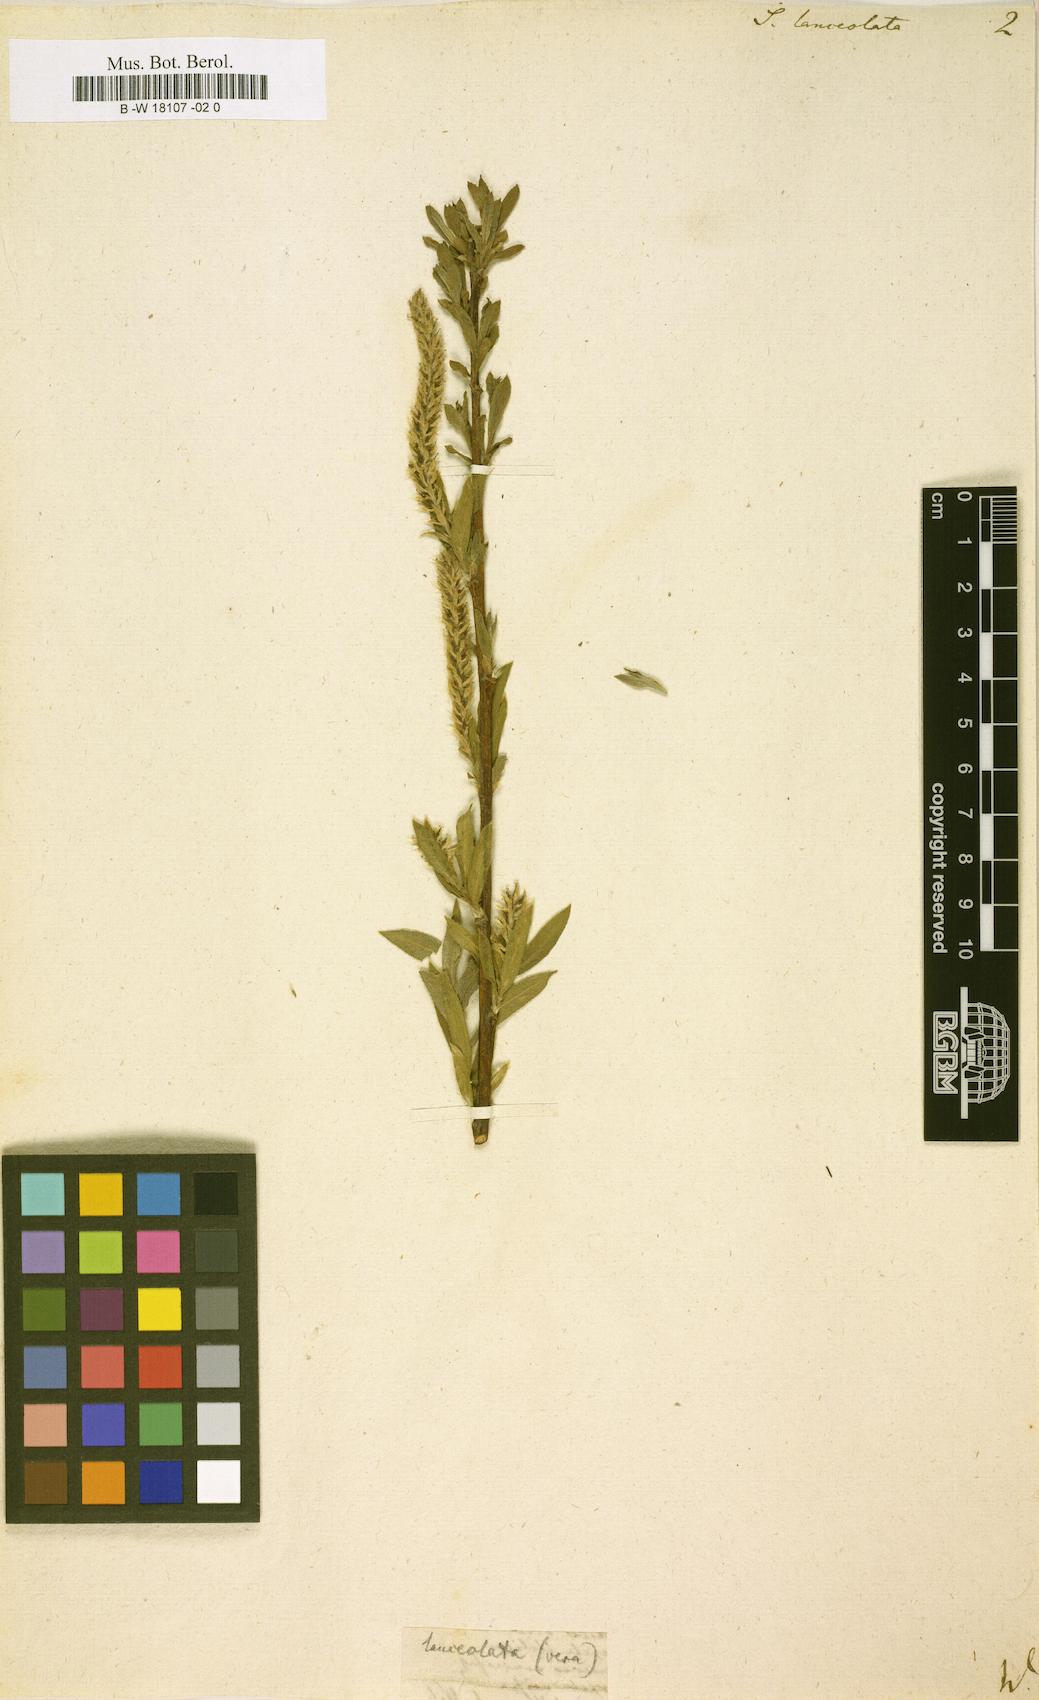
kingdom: Plantae
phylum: Tracheophyta
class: Magnoliopsida
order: Malpighiales
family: Salicaceae
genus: Salix
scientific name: Salix
